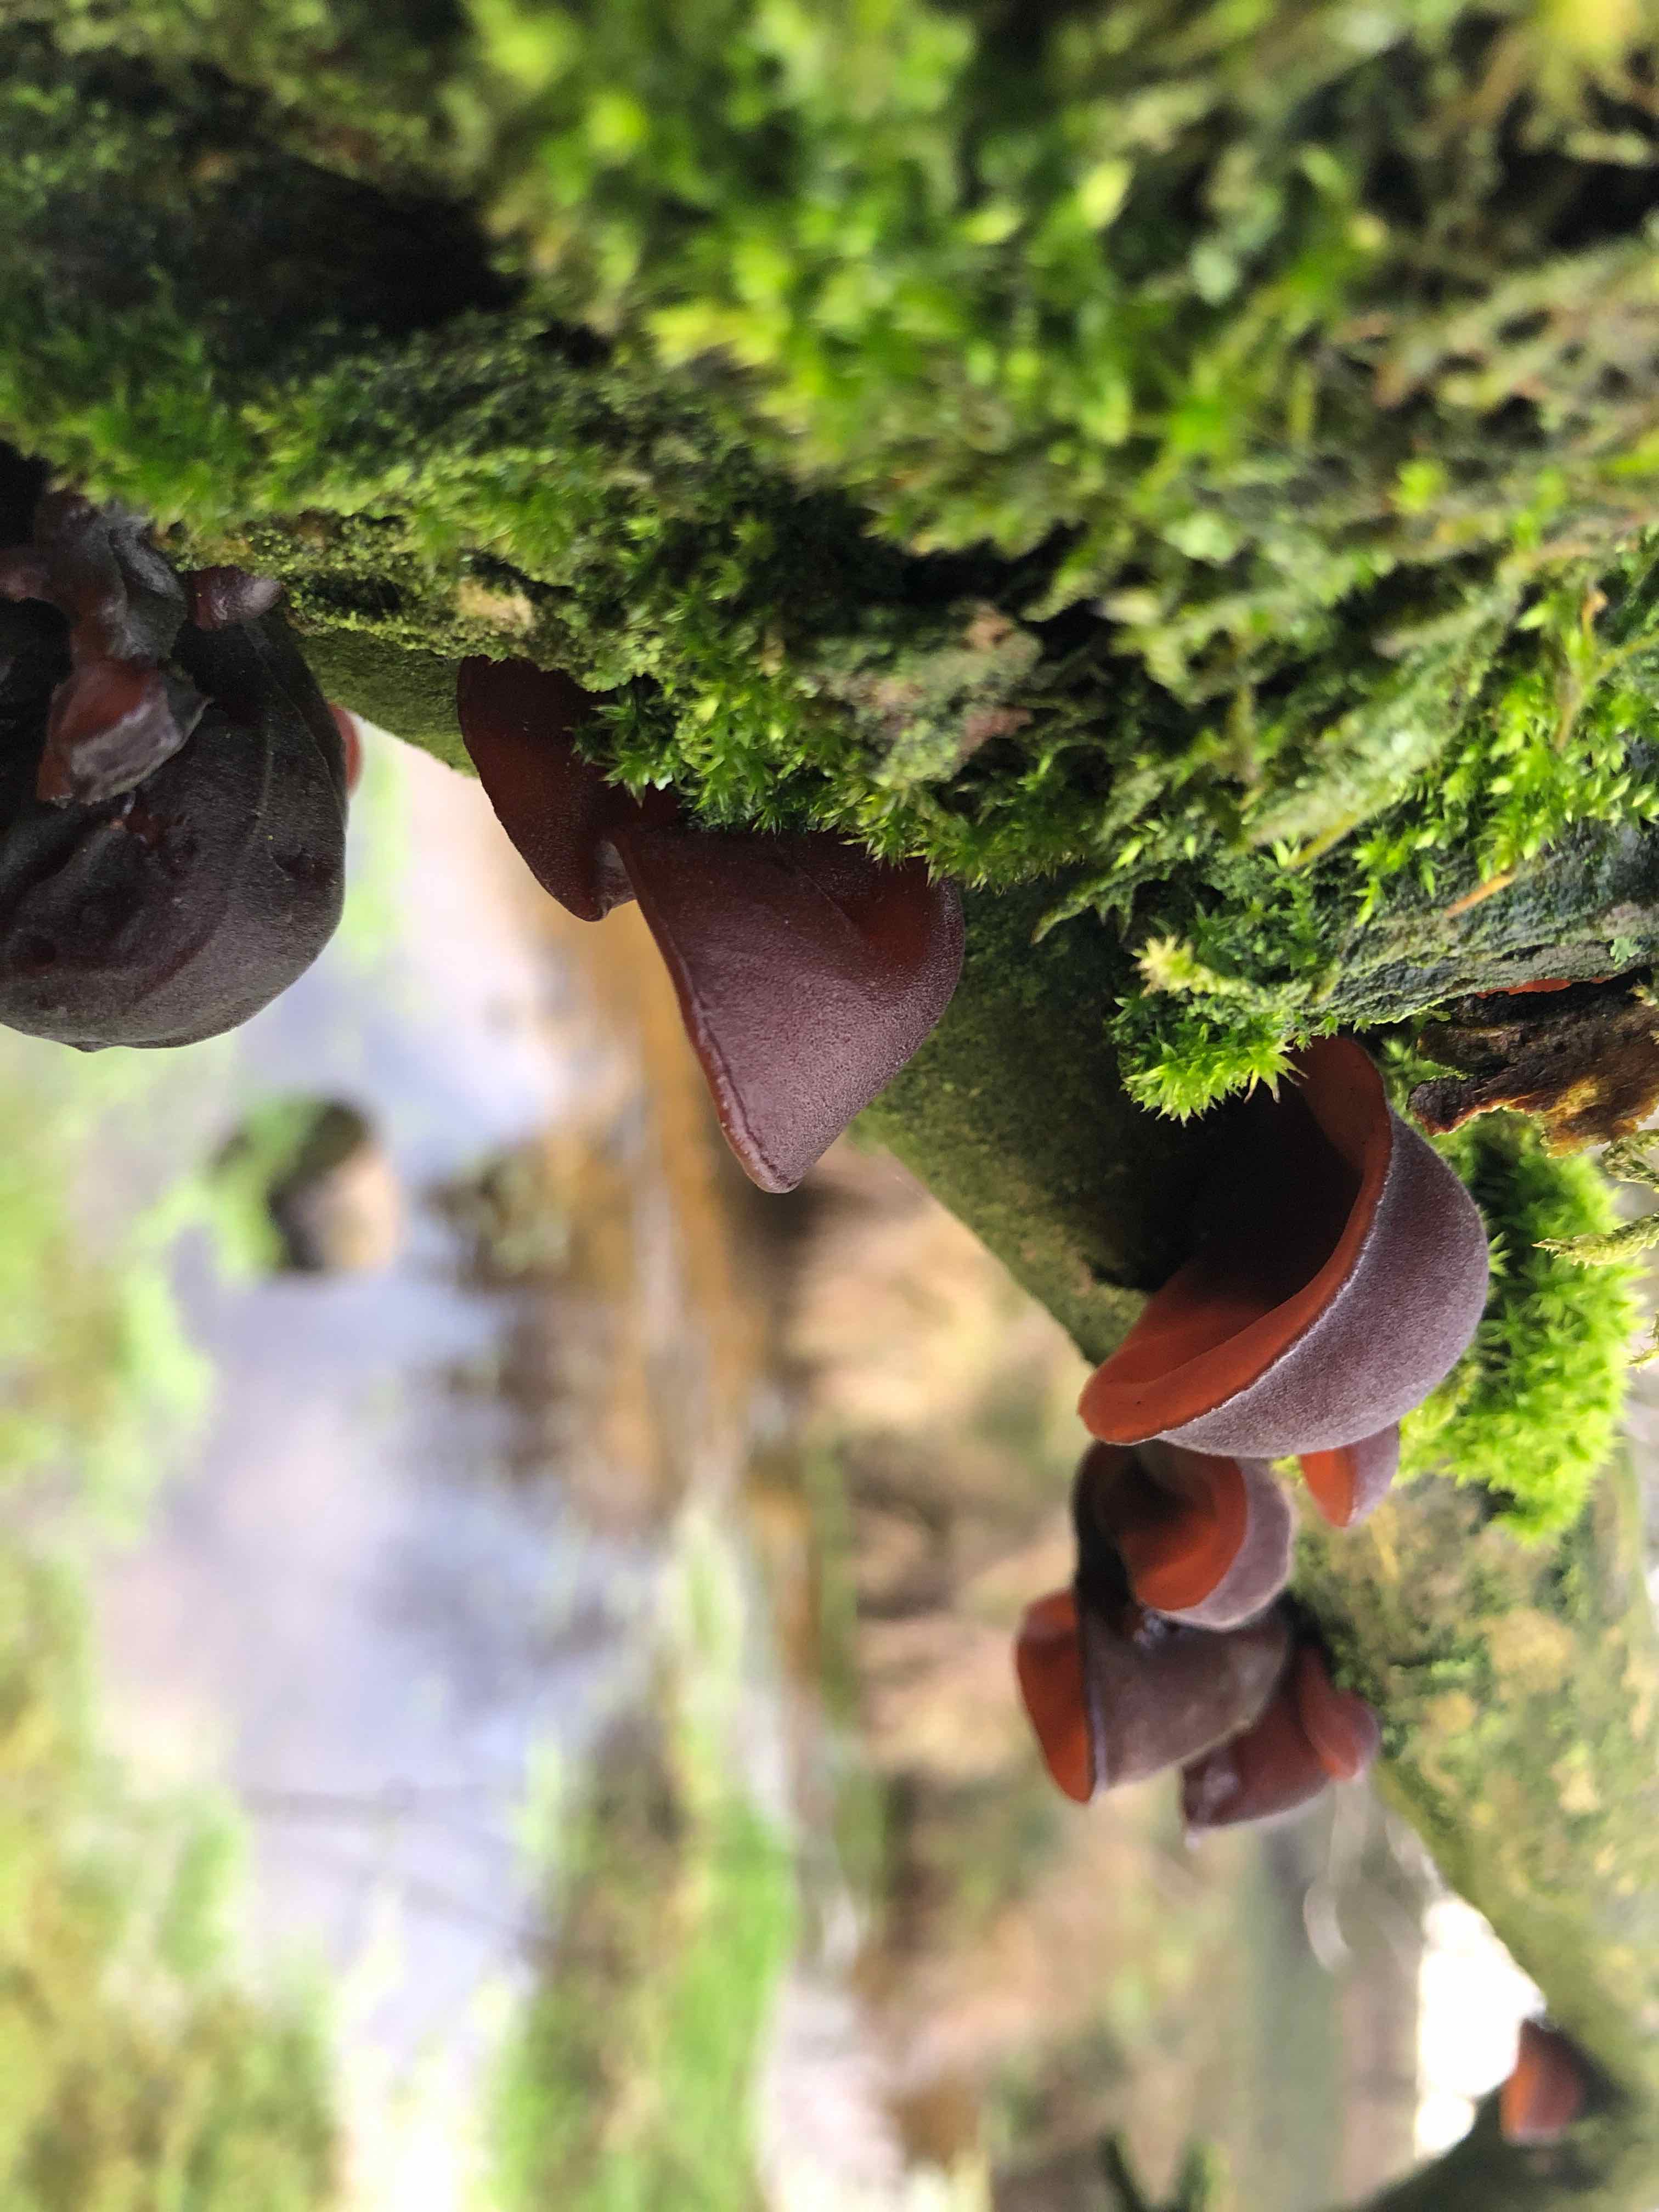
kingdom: Fungi
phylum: Basidiomycota
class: Agaricomycetes
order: Auriculariales
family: Auriculariaceae
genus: Auricularia
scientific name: Auricularia auricula-judae
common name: almindelig judasøre
